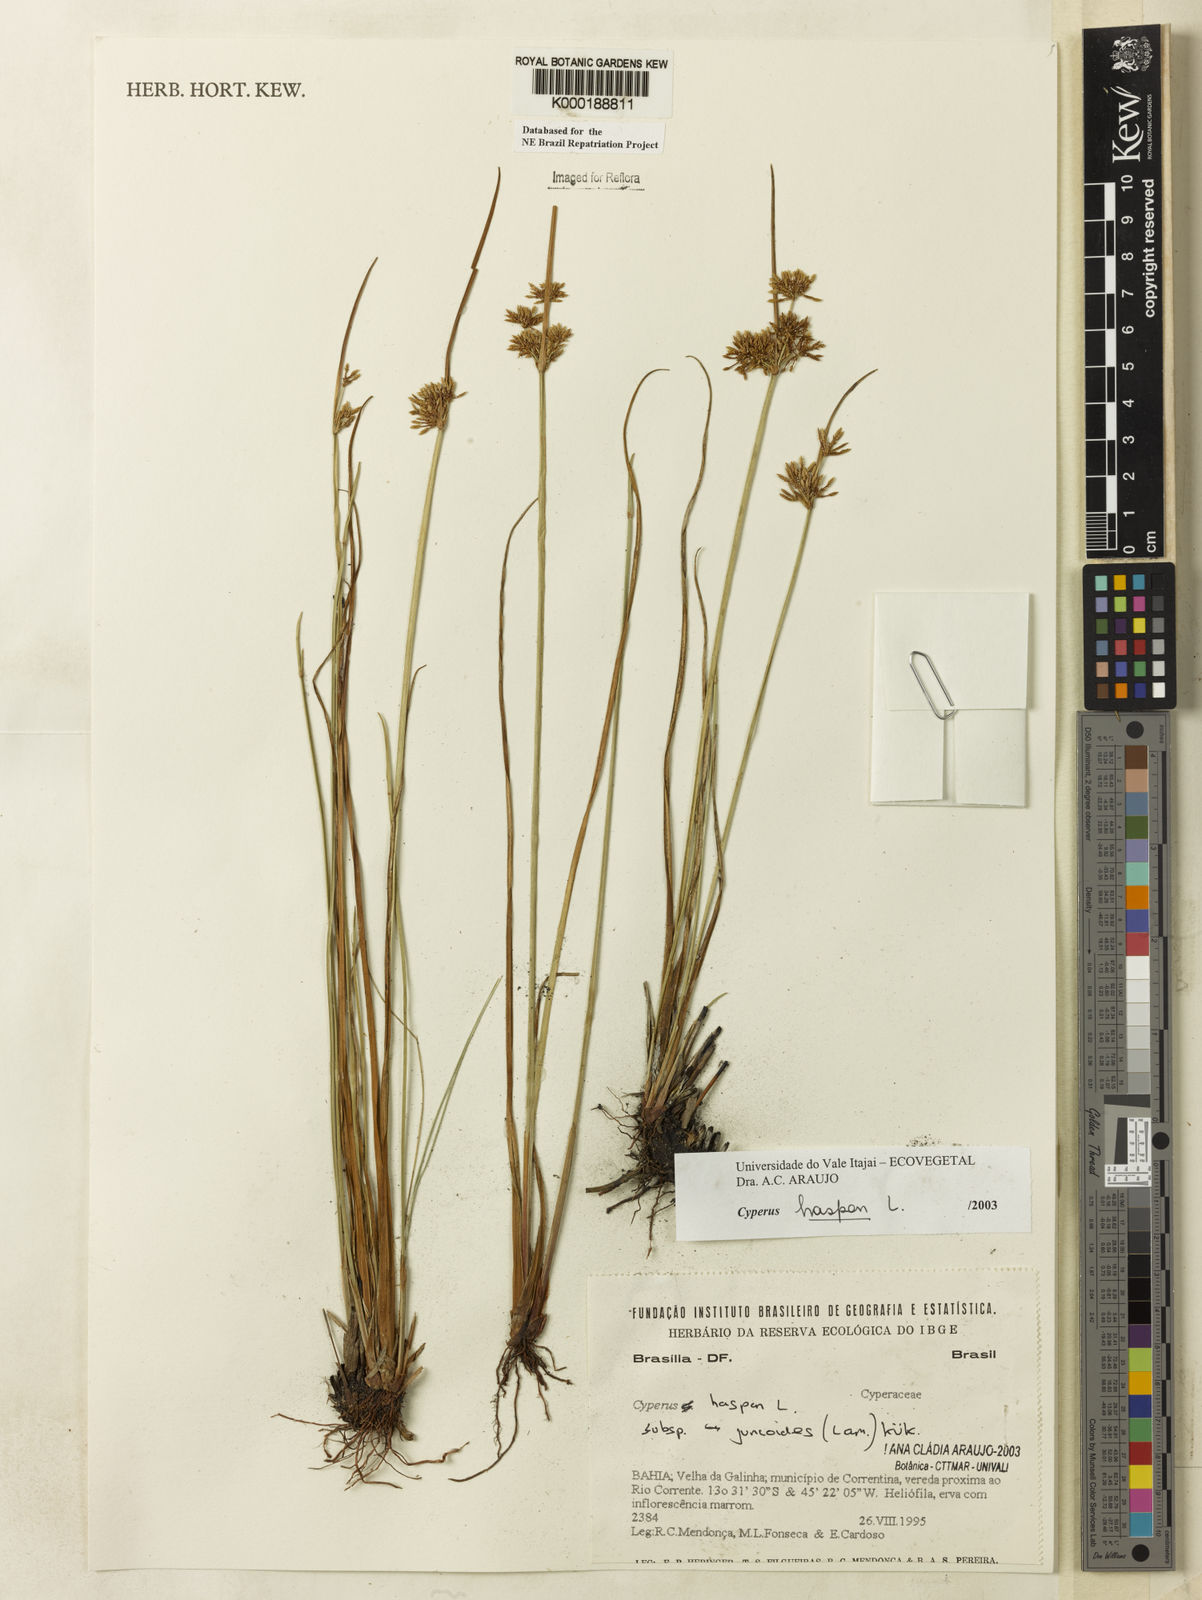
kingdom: Plantae
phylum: Tracheophyta
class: Liliopsida
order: Poales
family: Cyperaceae
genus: Cyperus
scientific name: Cyperus haspan
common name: Haspan flatsedge
